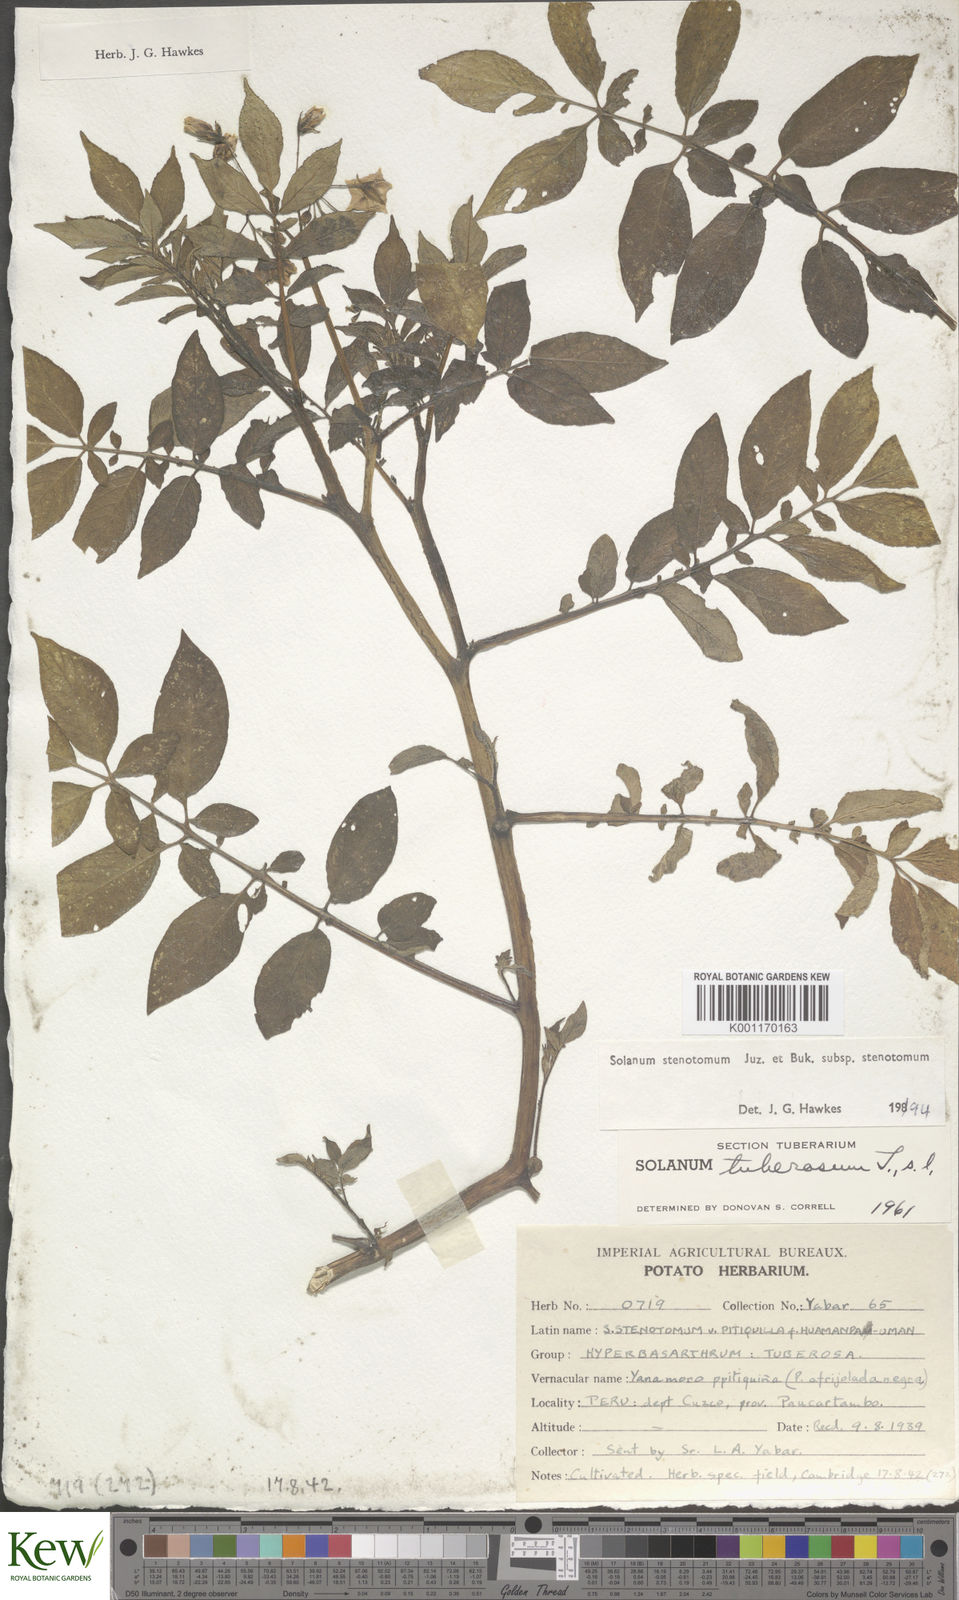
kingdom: Plantae
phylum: Tracheophyta
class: Magnoliopsida
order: Solanales
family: Solanaceae
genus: Solanum
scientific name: Solanum tuberosum
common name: Potato
